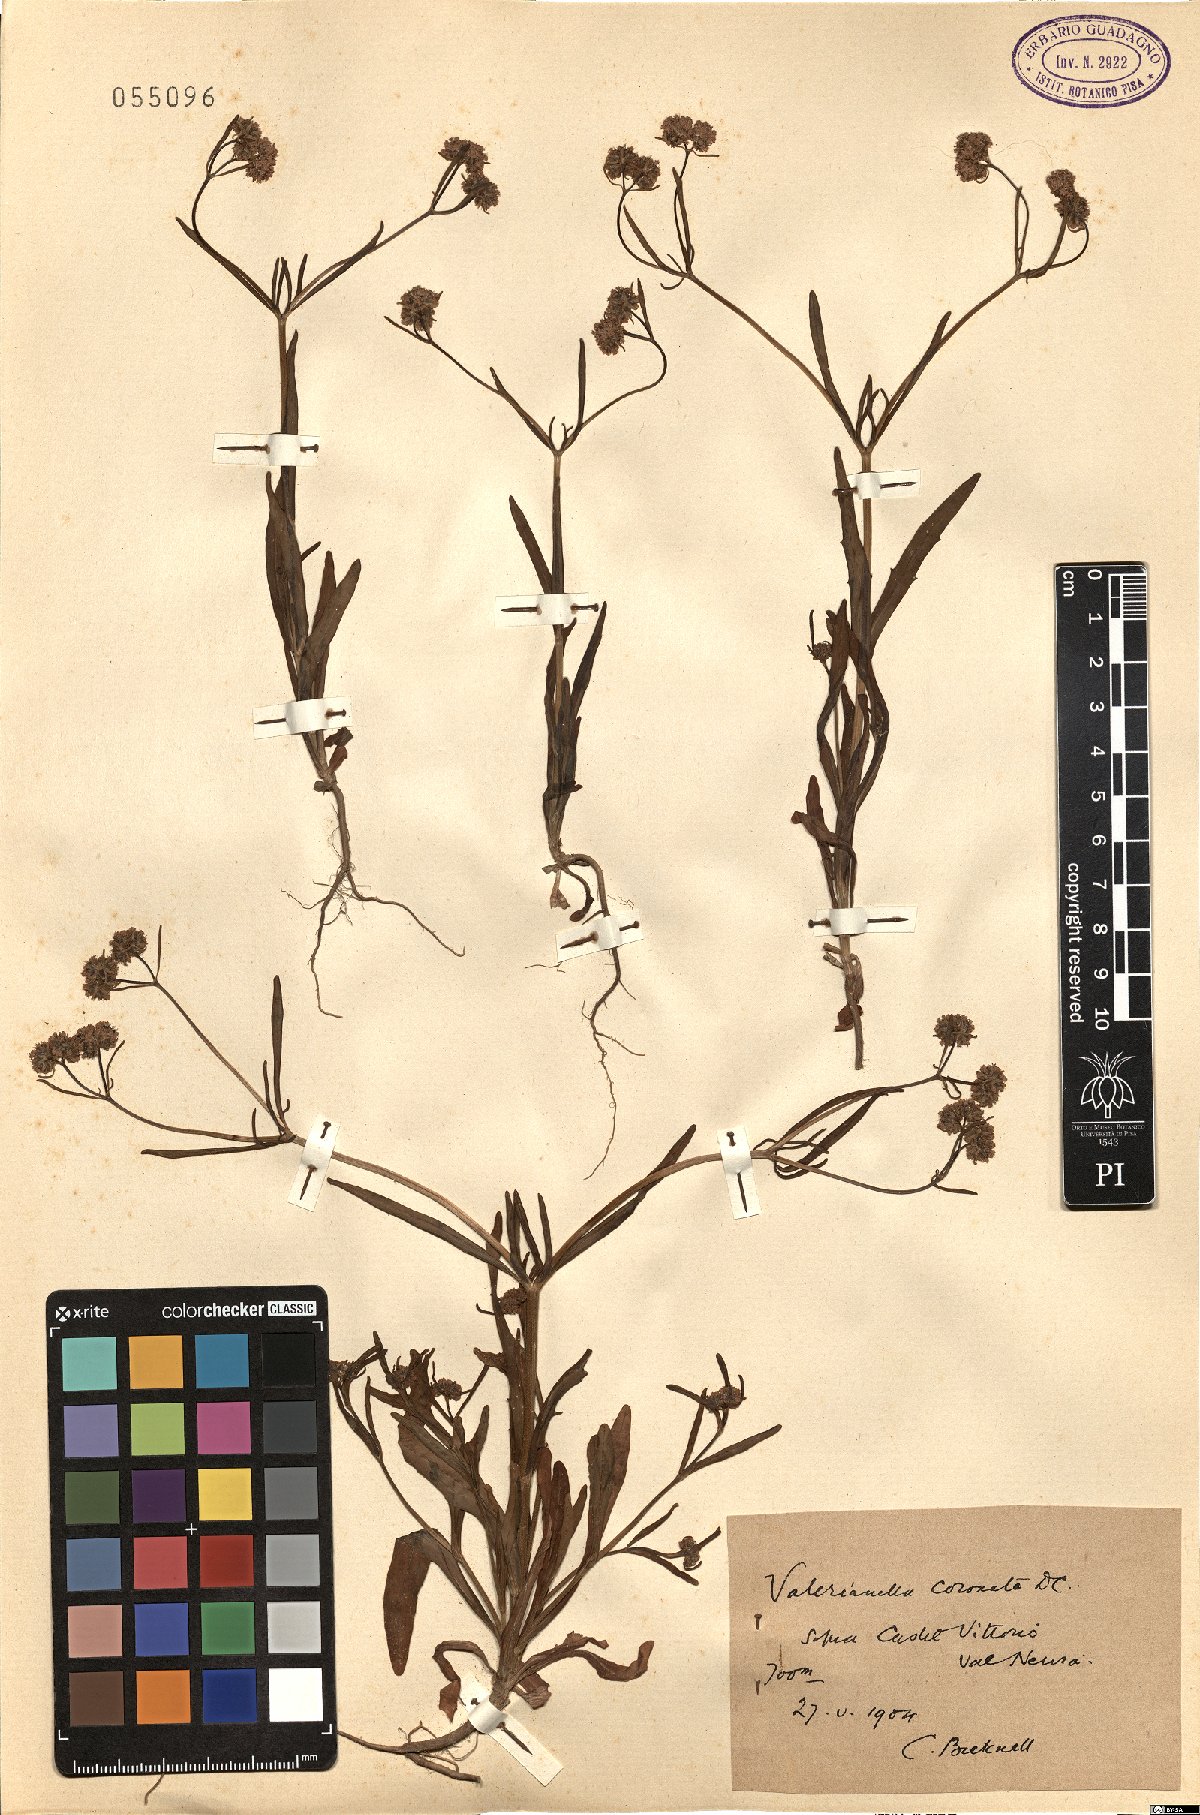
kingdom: Plantae
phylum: Tracheophyta
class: Magnoliopsida
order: Dipsacales
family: Caprifoliaceae
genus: Valerianella
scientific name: Valerianella coronata
